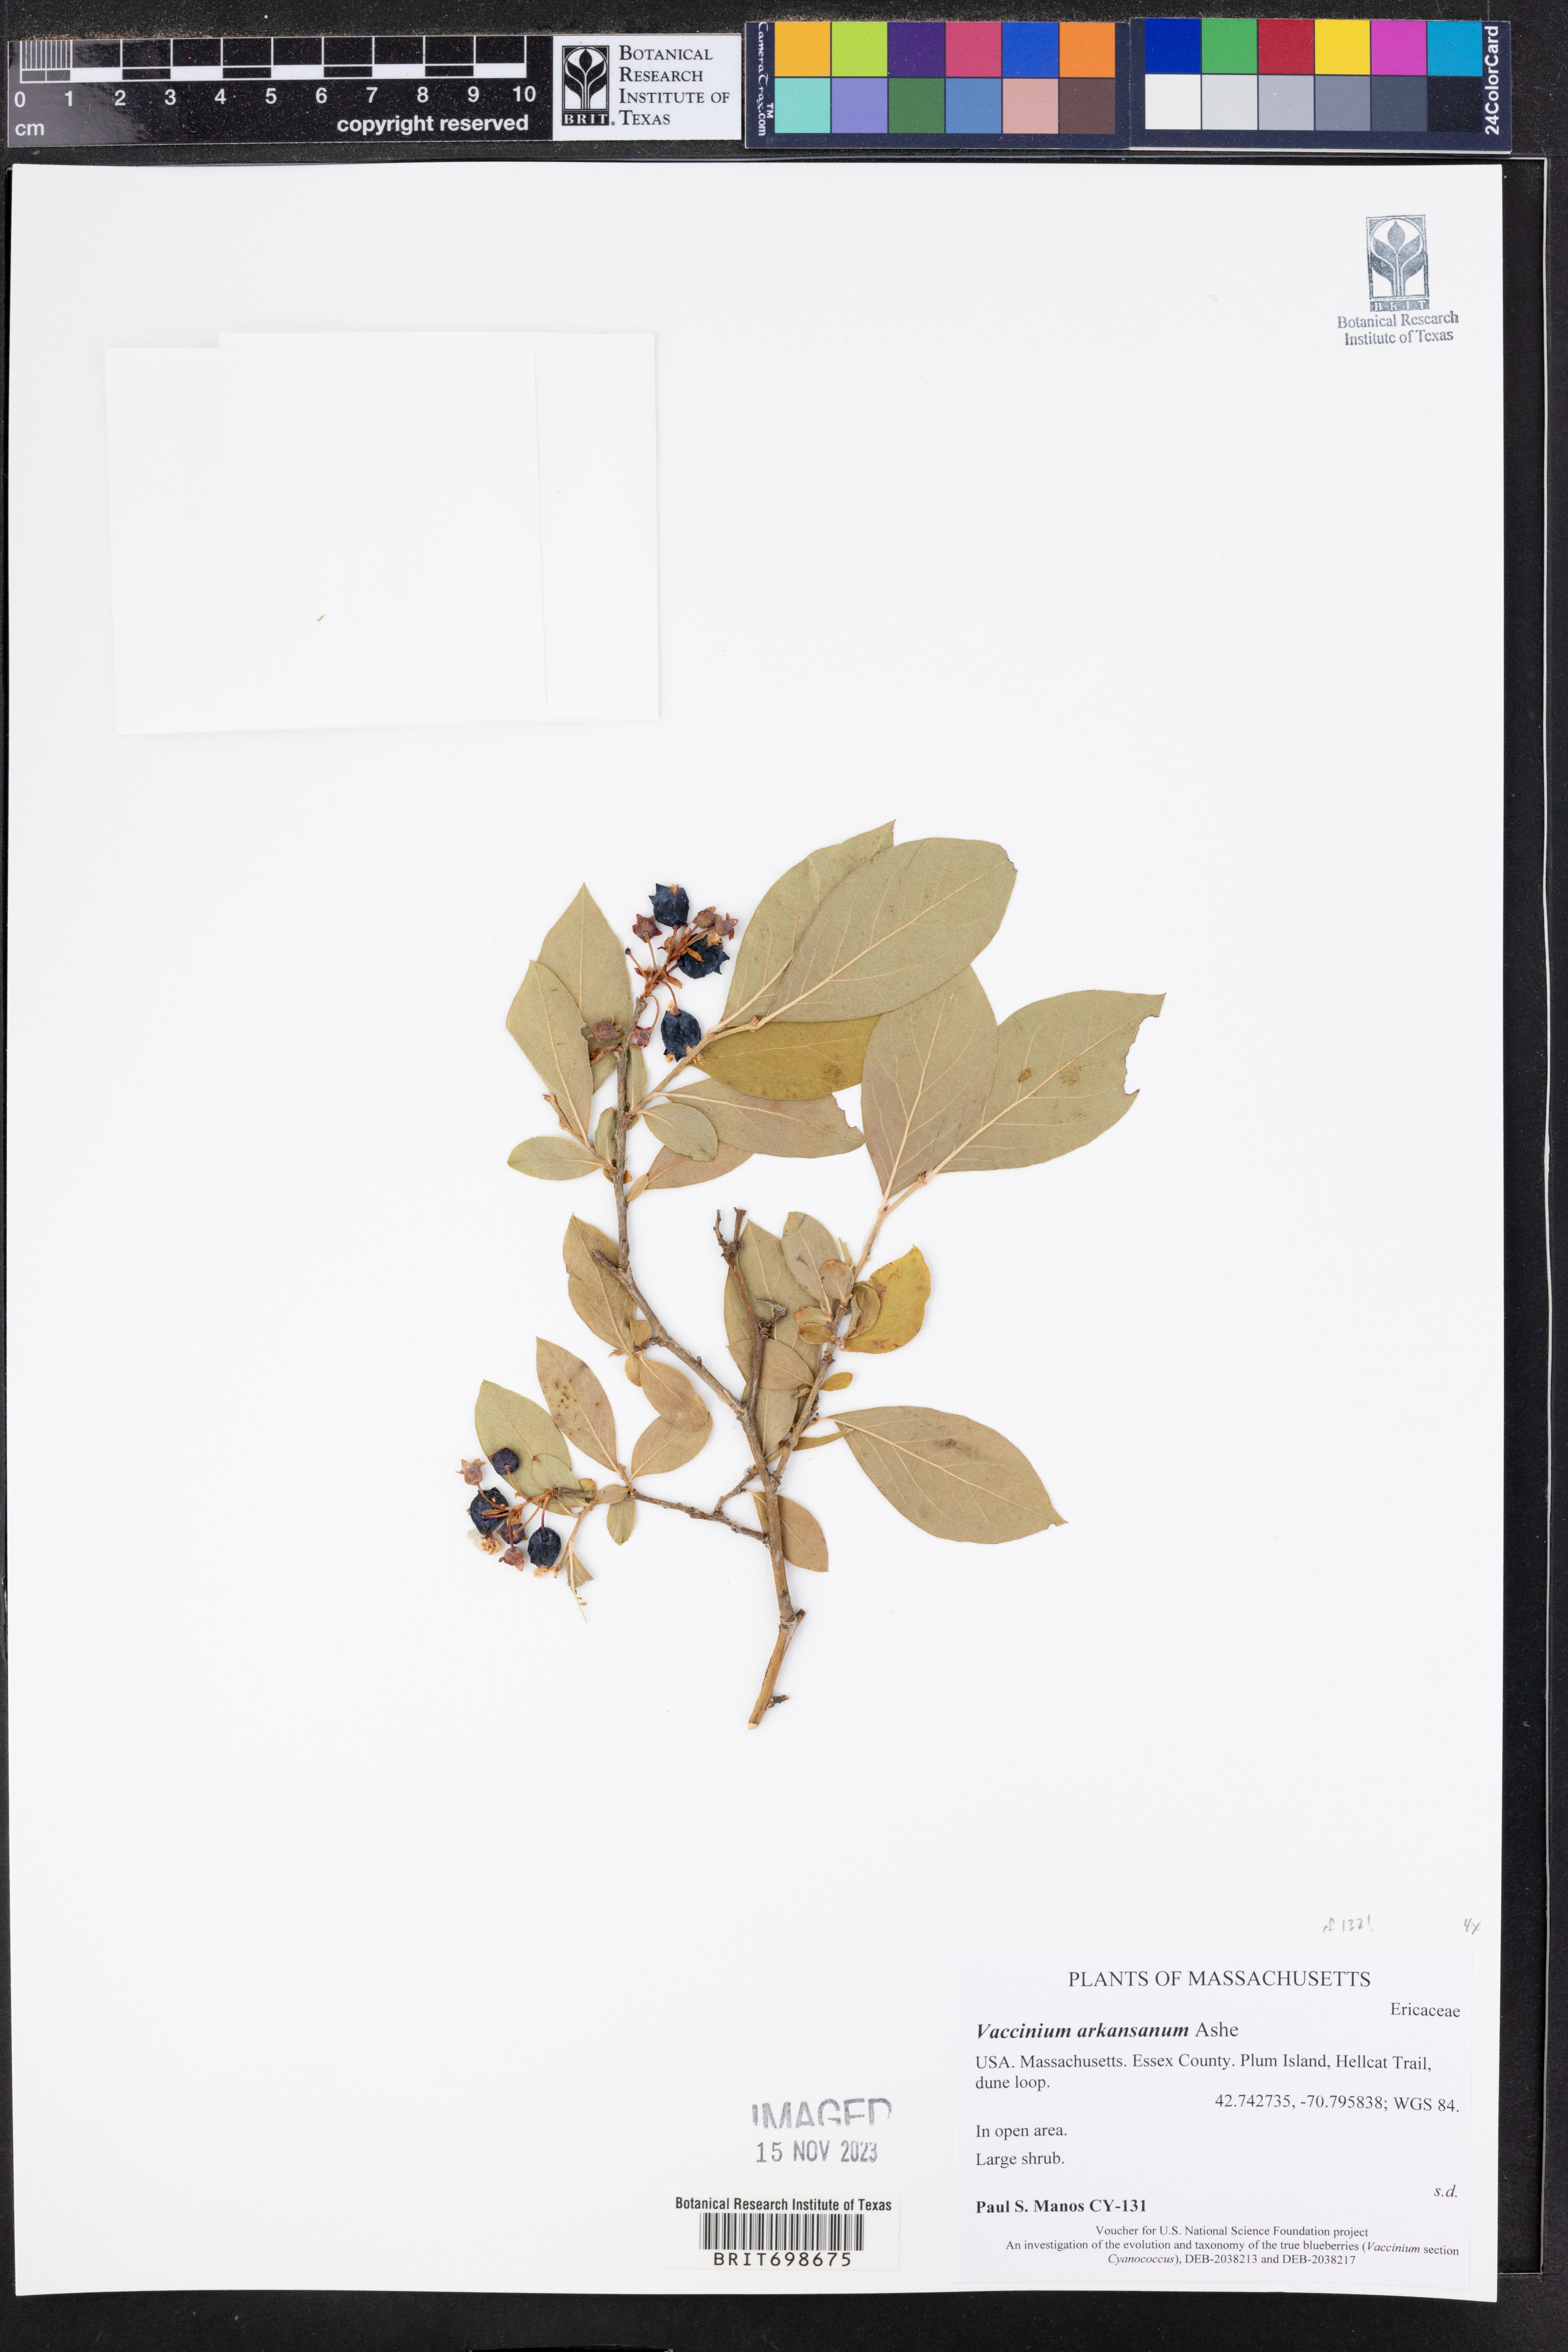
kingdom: Plantae
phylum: Tracheophyta
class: Magnoliopsida
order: Ericales
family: Ericaceae
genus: Vaccinium
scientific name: Vaccinium corymbosum
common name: Blueberry
